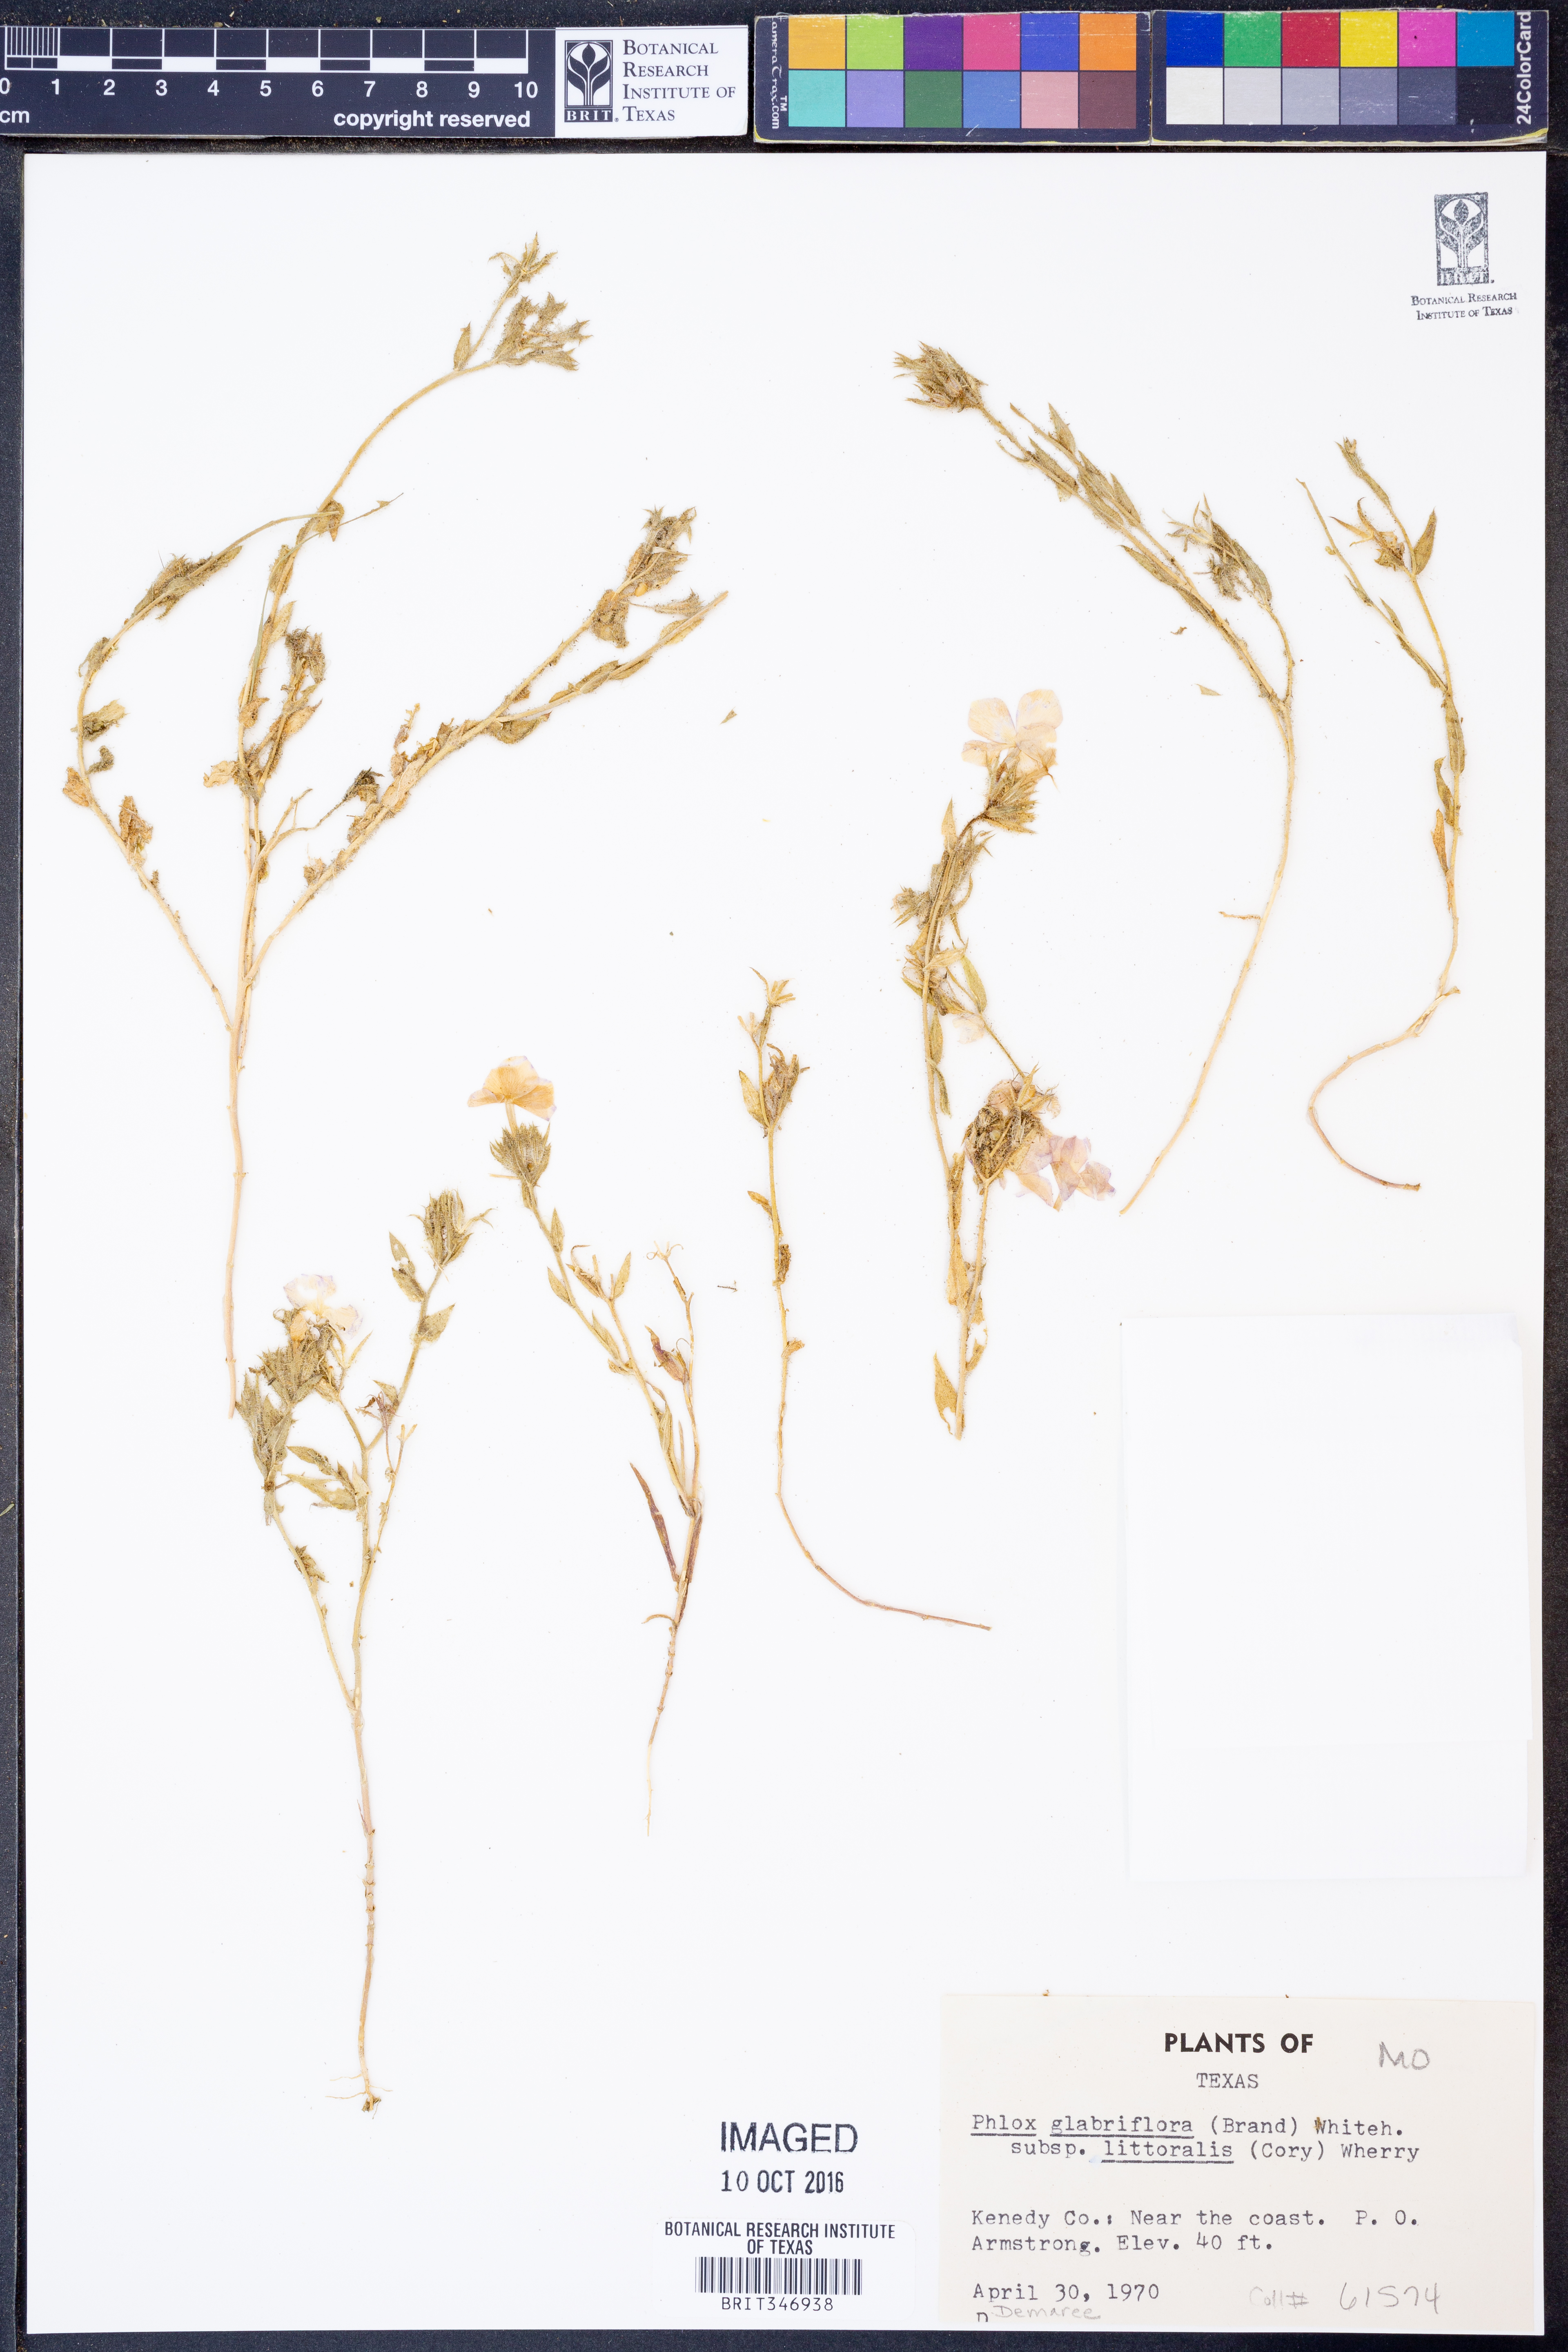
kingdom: Plantae
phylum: Tracheophyta
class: Magnoliopsida
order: Ericales
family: Polemoniaceae
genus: Phlox
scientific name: Phlox glabriflora
